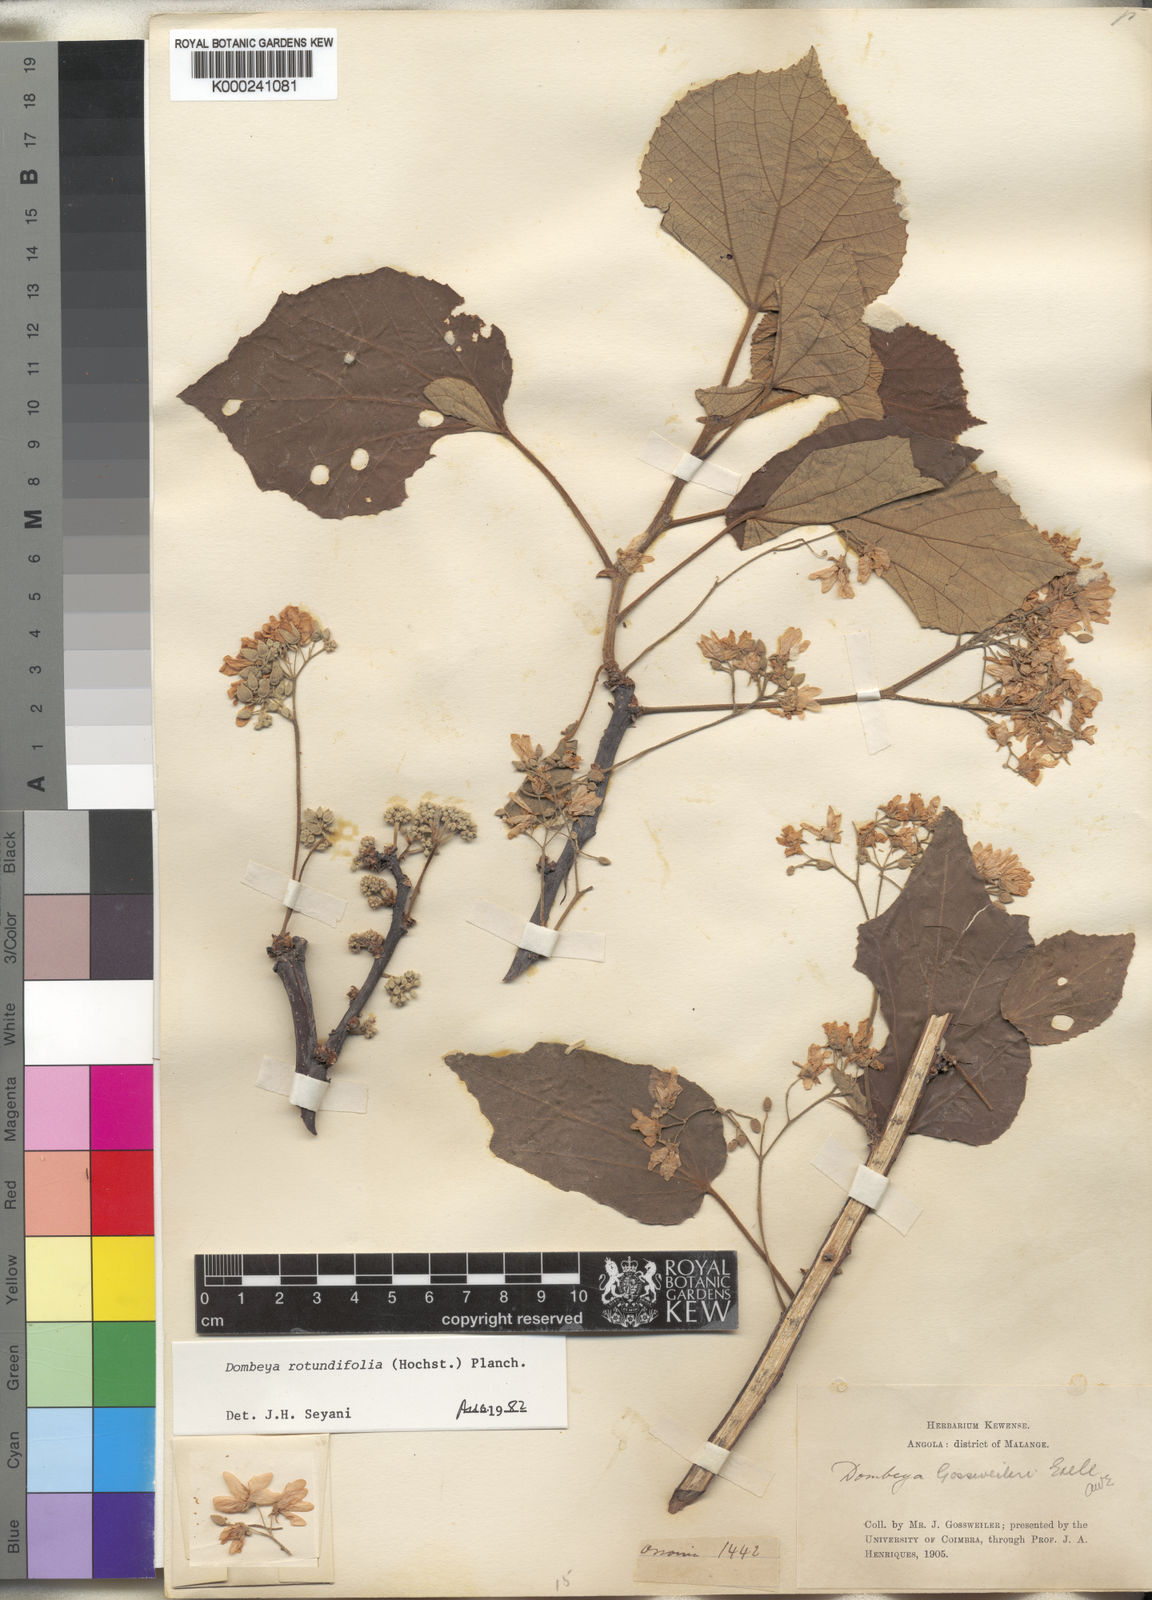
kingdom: Plantae
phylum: Tracheophyta
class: Magnoliopsida
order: Malvales
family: Malvaceae
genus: Dombeya
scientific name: Dombeya rotundifolia
